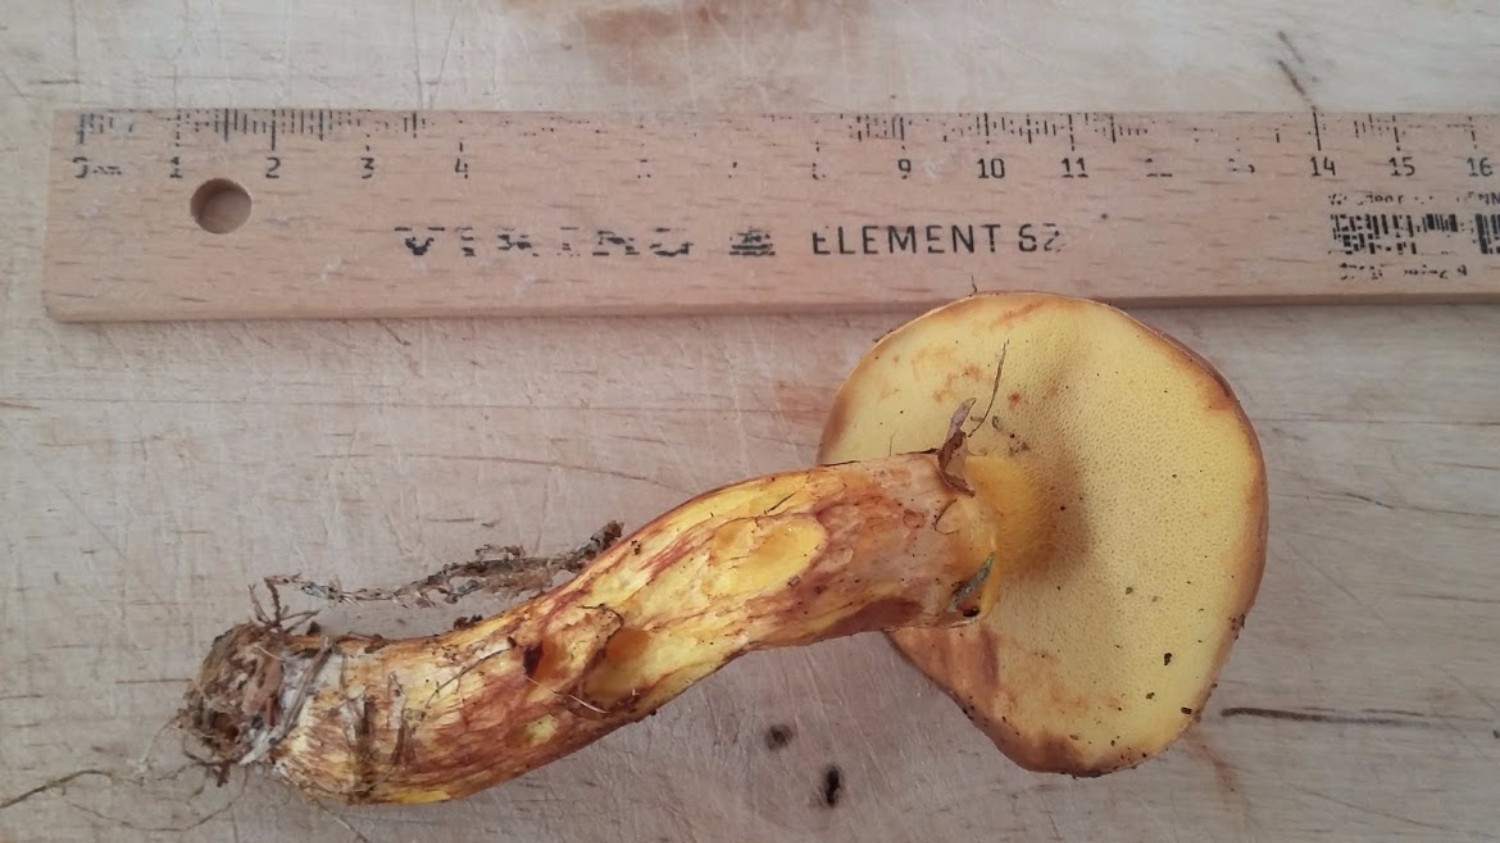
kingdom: Fungi
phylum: Basidiomycota
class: Agaricomycetes
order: Boletales
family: Suillaceae
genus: Suillus
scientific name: Suillus grevillei
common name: lærke-slimrørhat
